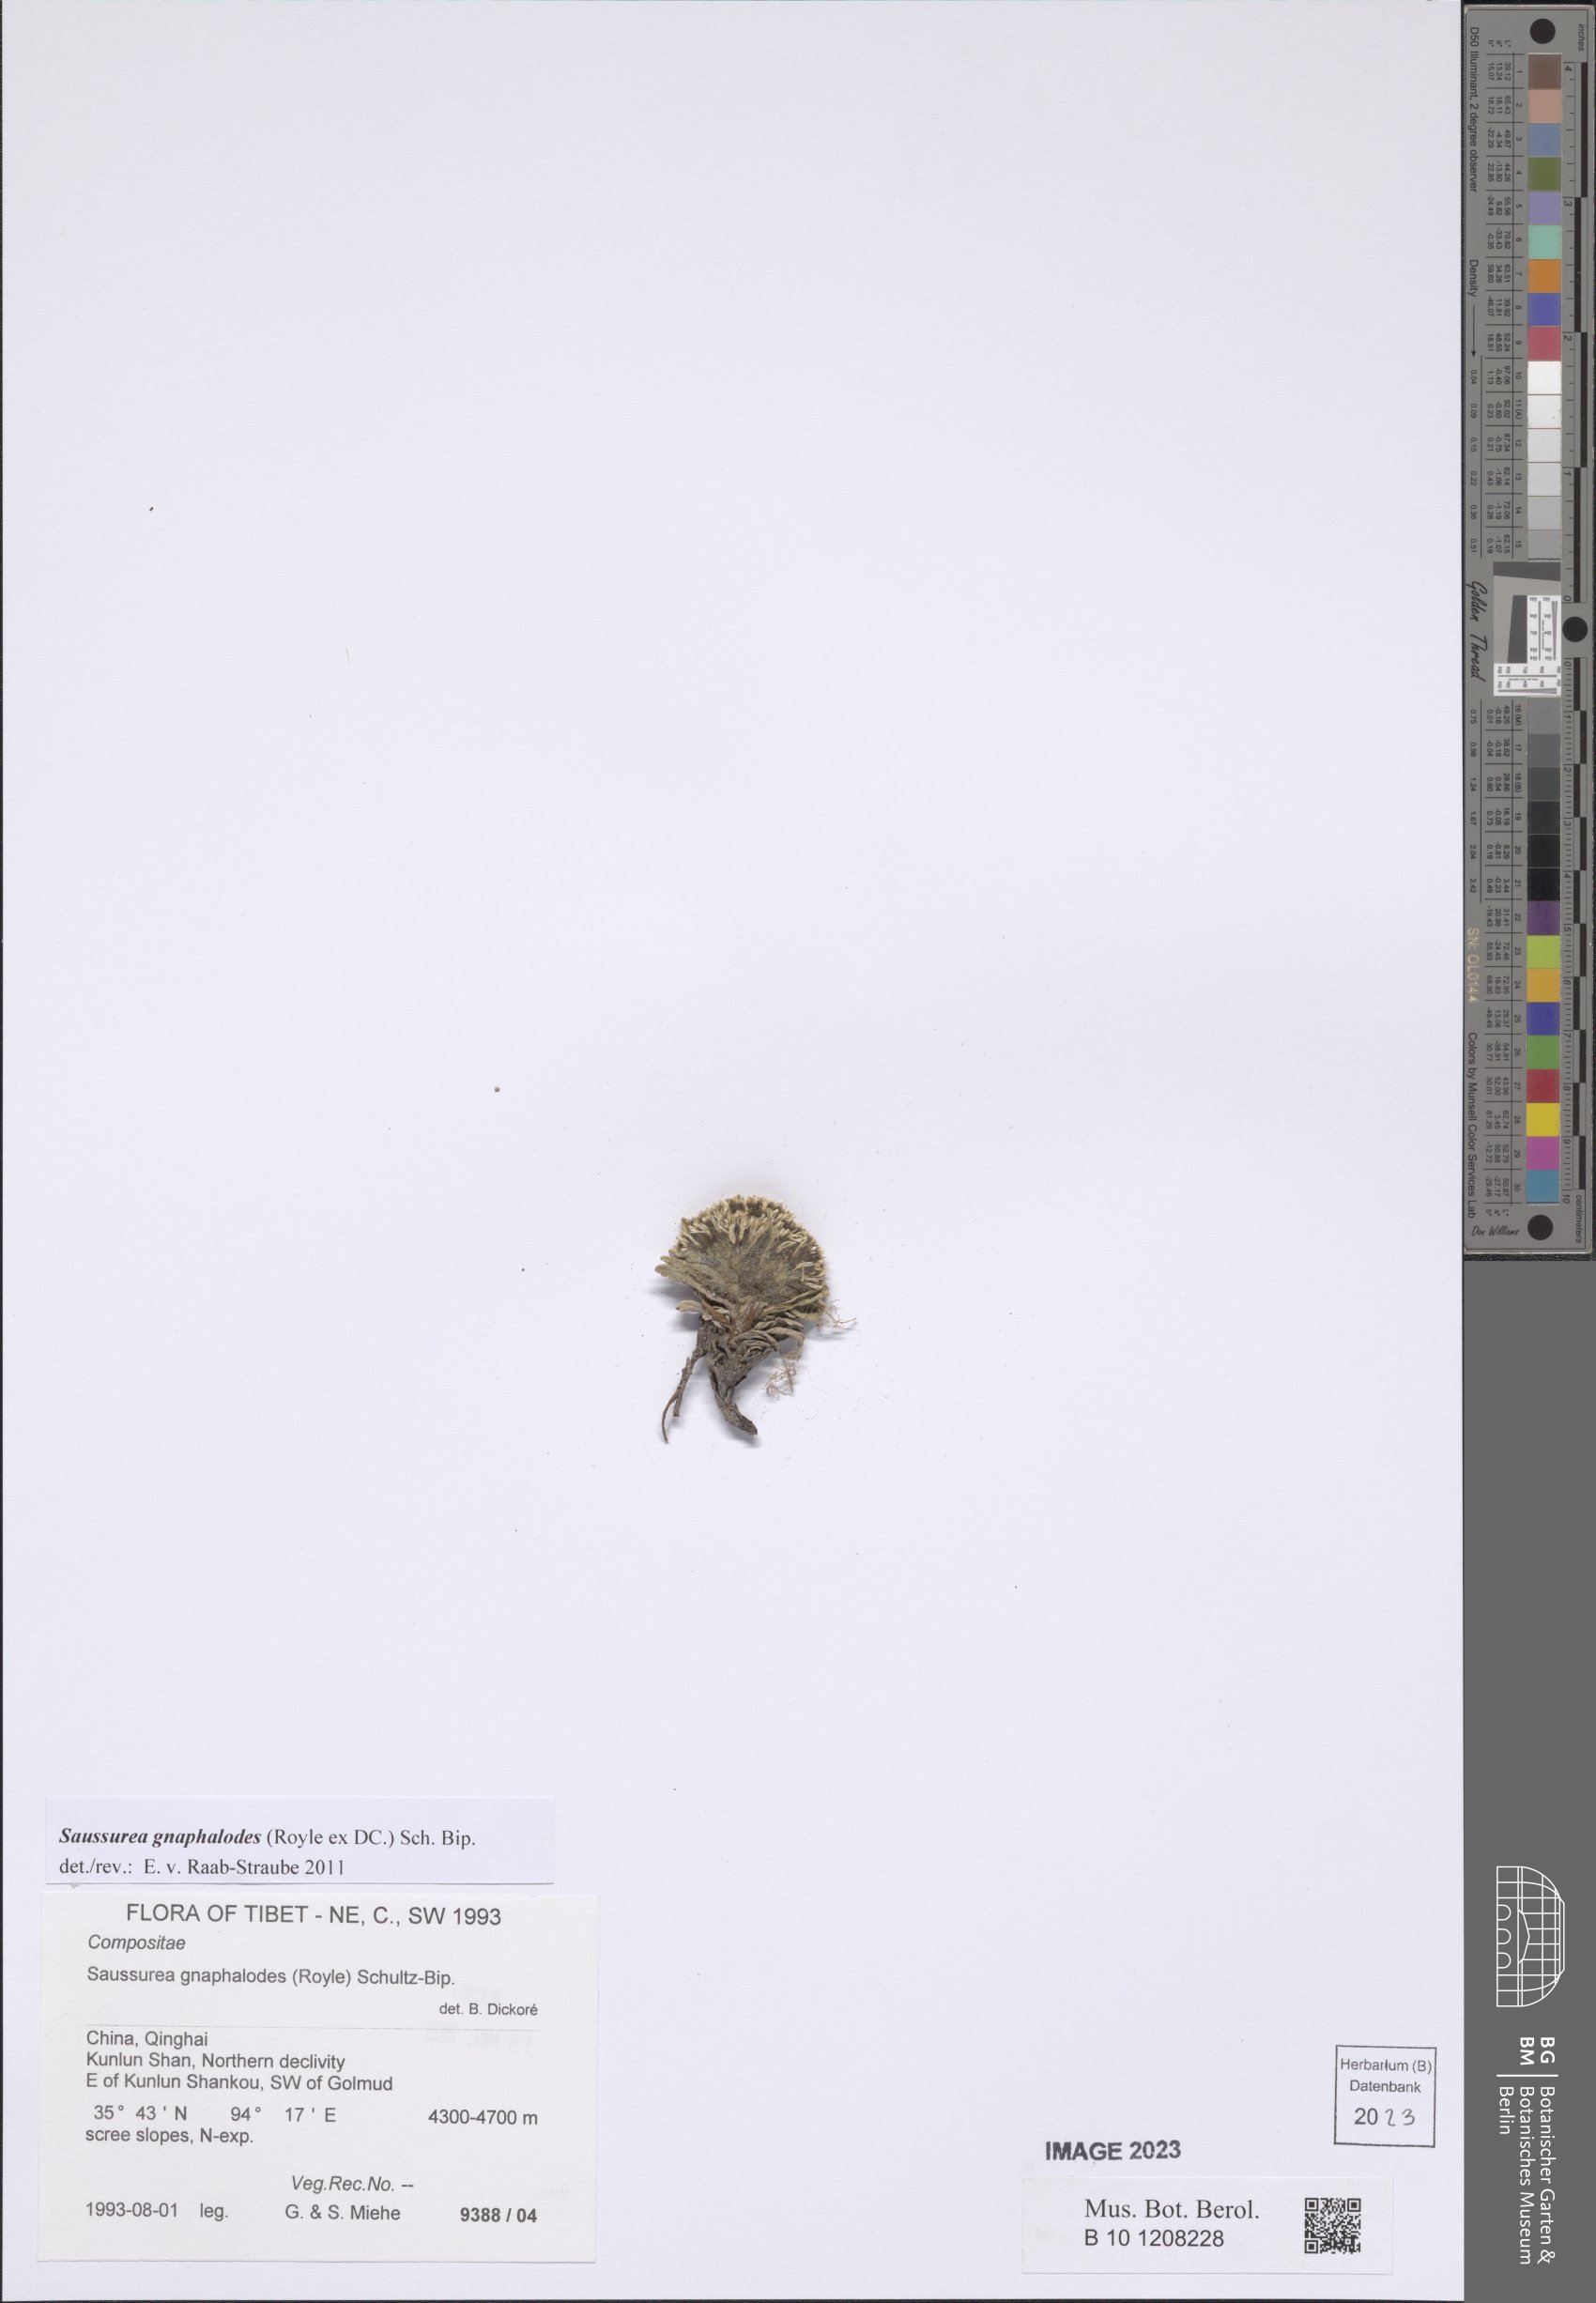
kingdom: Plantae
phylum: Tracheophyta
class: Magnoliopsida
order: Asterales
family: Asteraceae
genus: Saussurea
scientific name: Saussurea gnaphalodes
